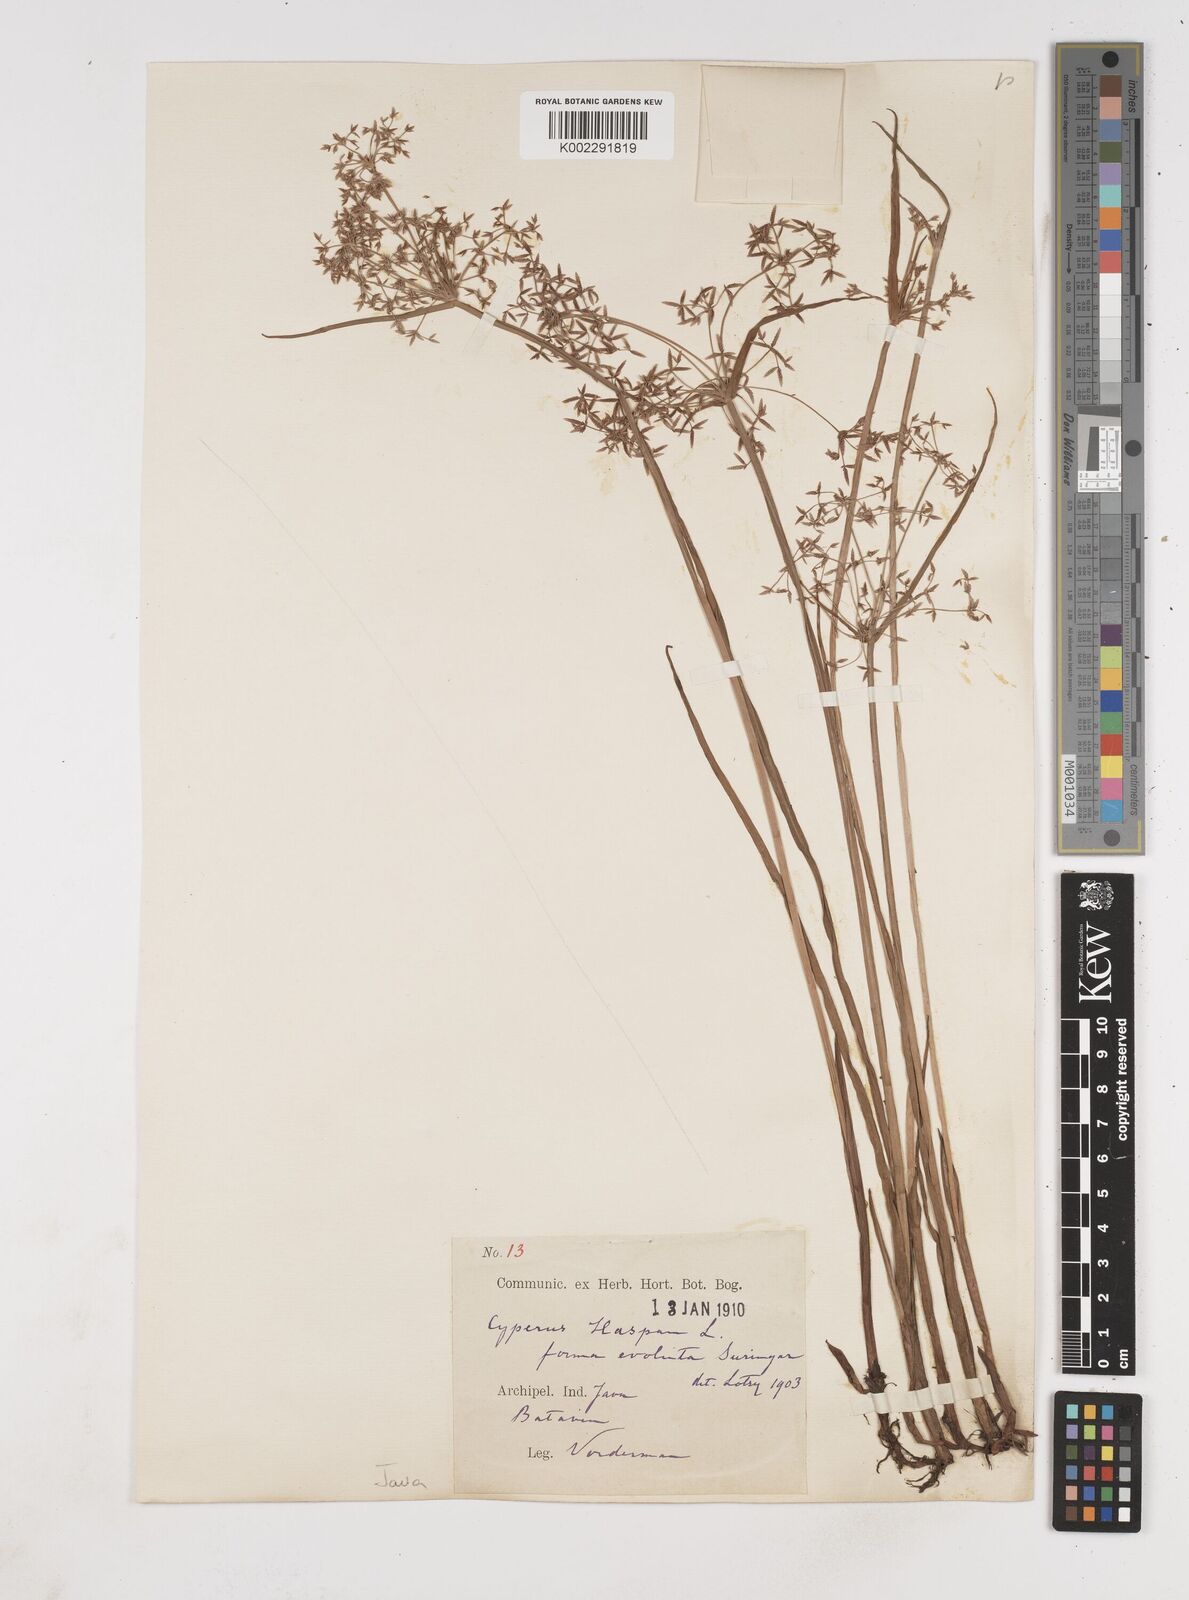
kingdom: Plantae
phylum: Tracheophyta
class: Liliopsida
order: Poales
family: Cyperaceae
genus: Cyperus
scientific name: Cyperus haspan
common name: Haspan flatsedge
